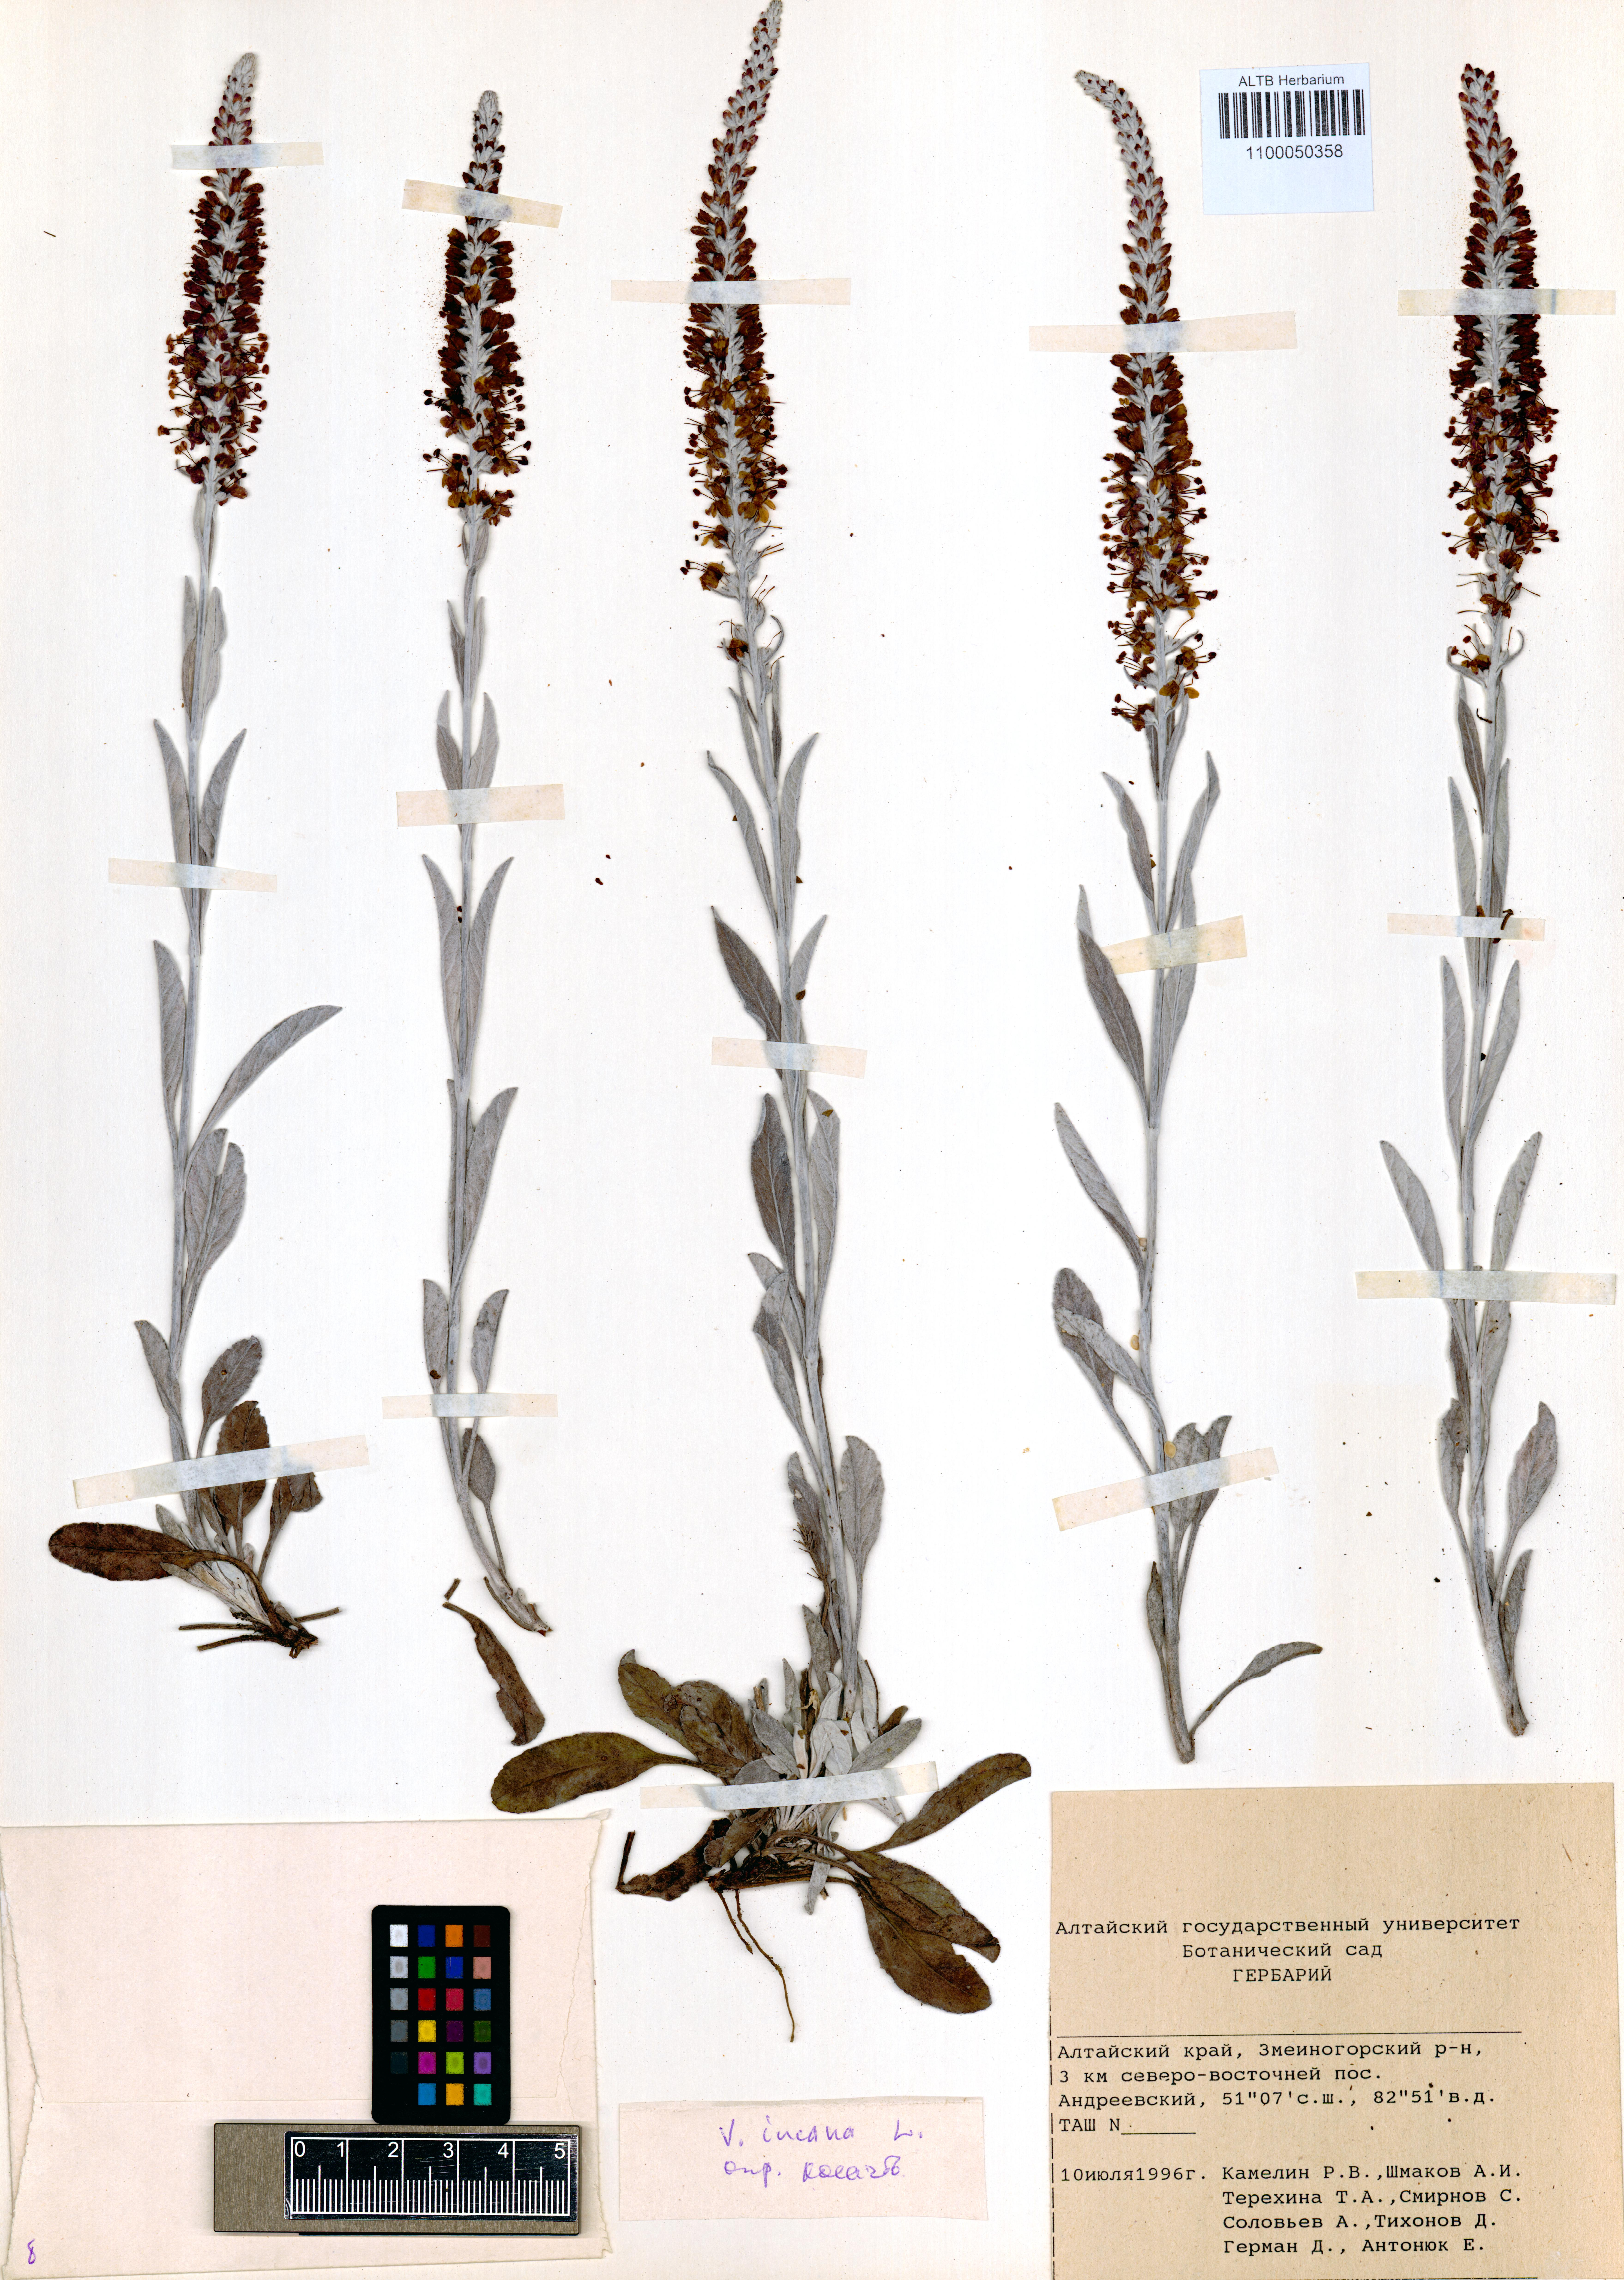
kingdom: Plantae
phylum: Tracheophyta
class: Magnoliopsida
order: Lamiales
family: Plantaginaceae
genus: Veronica
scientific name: Veronica incana
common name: Silver speedwell
